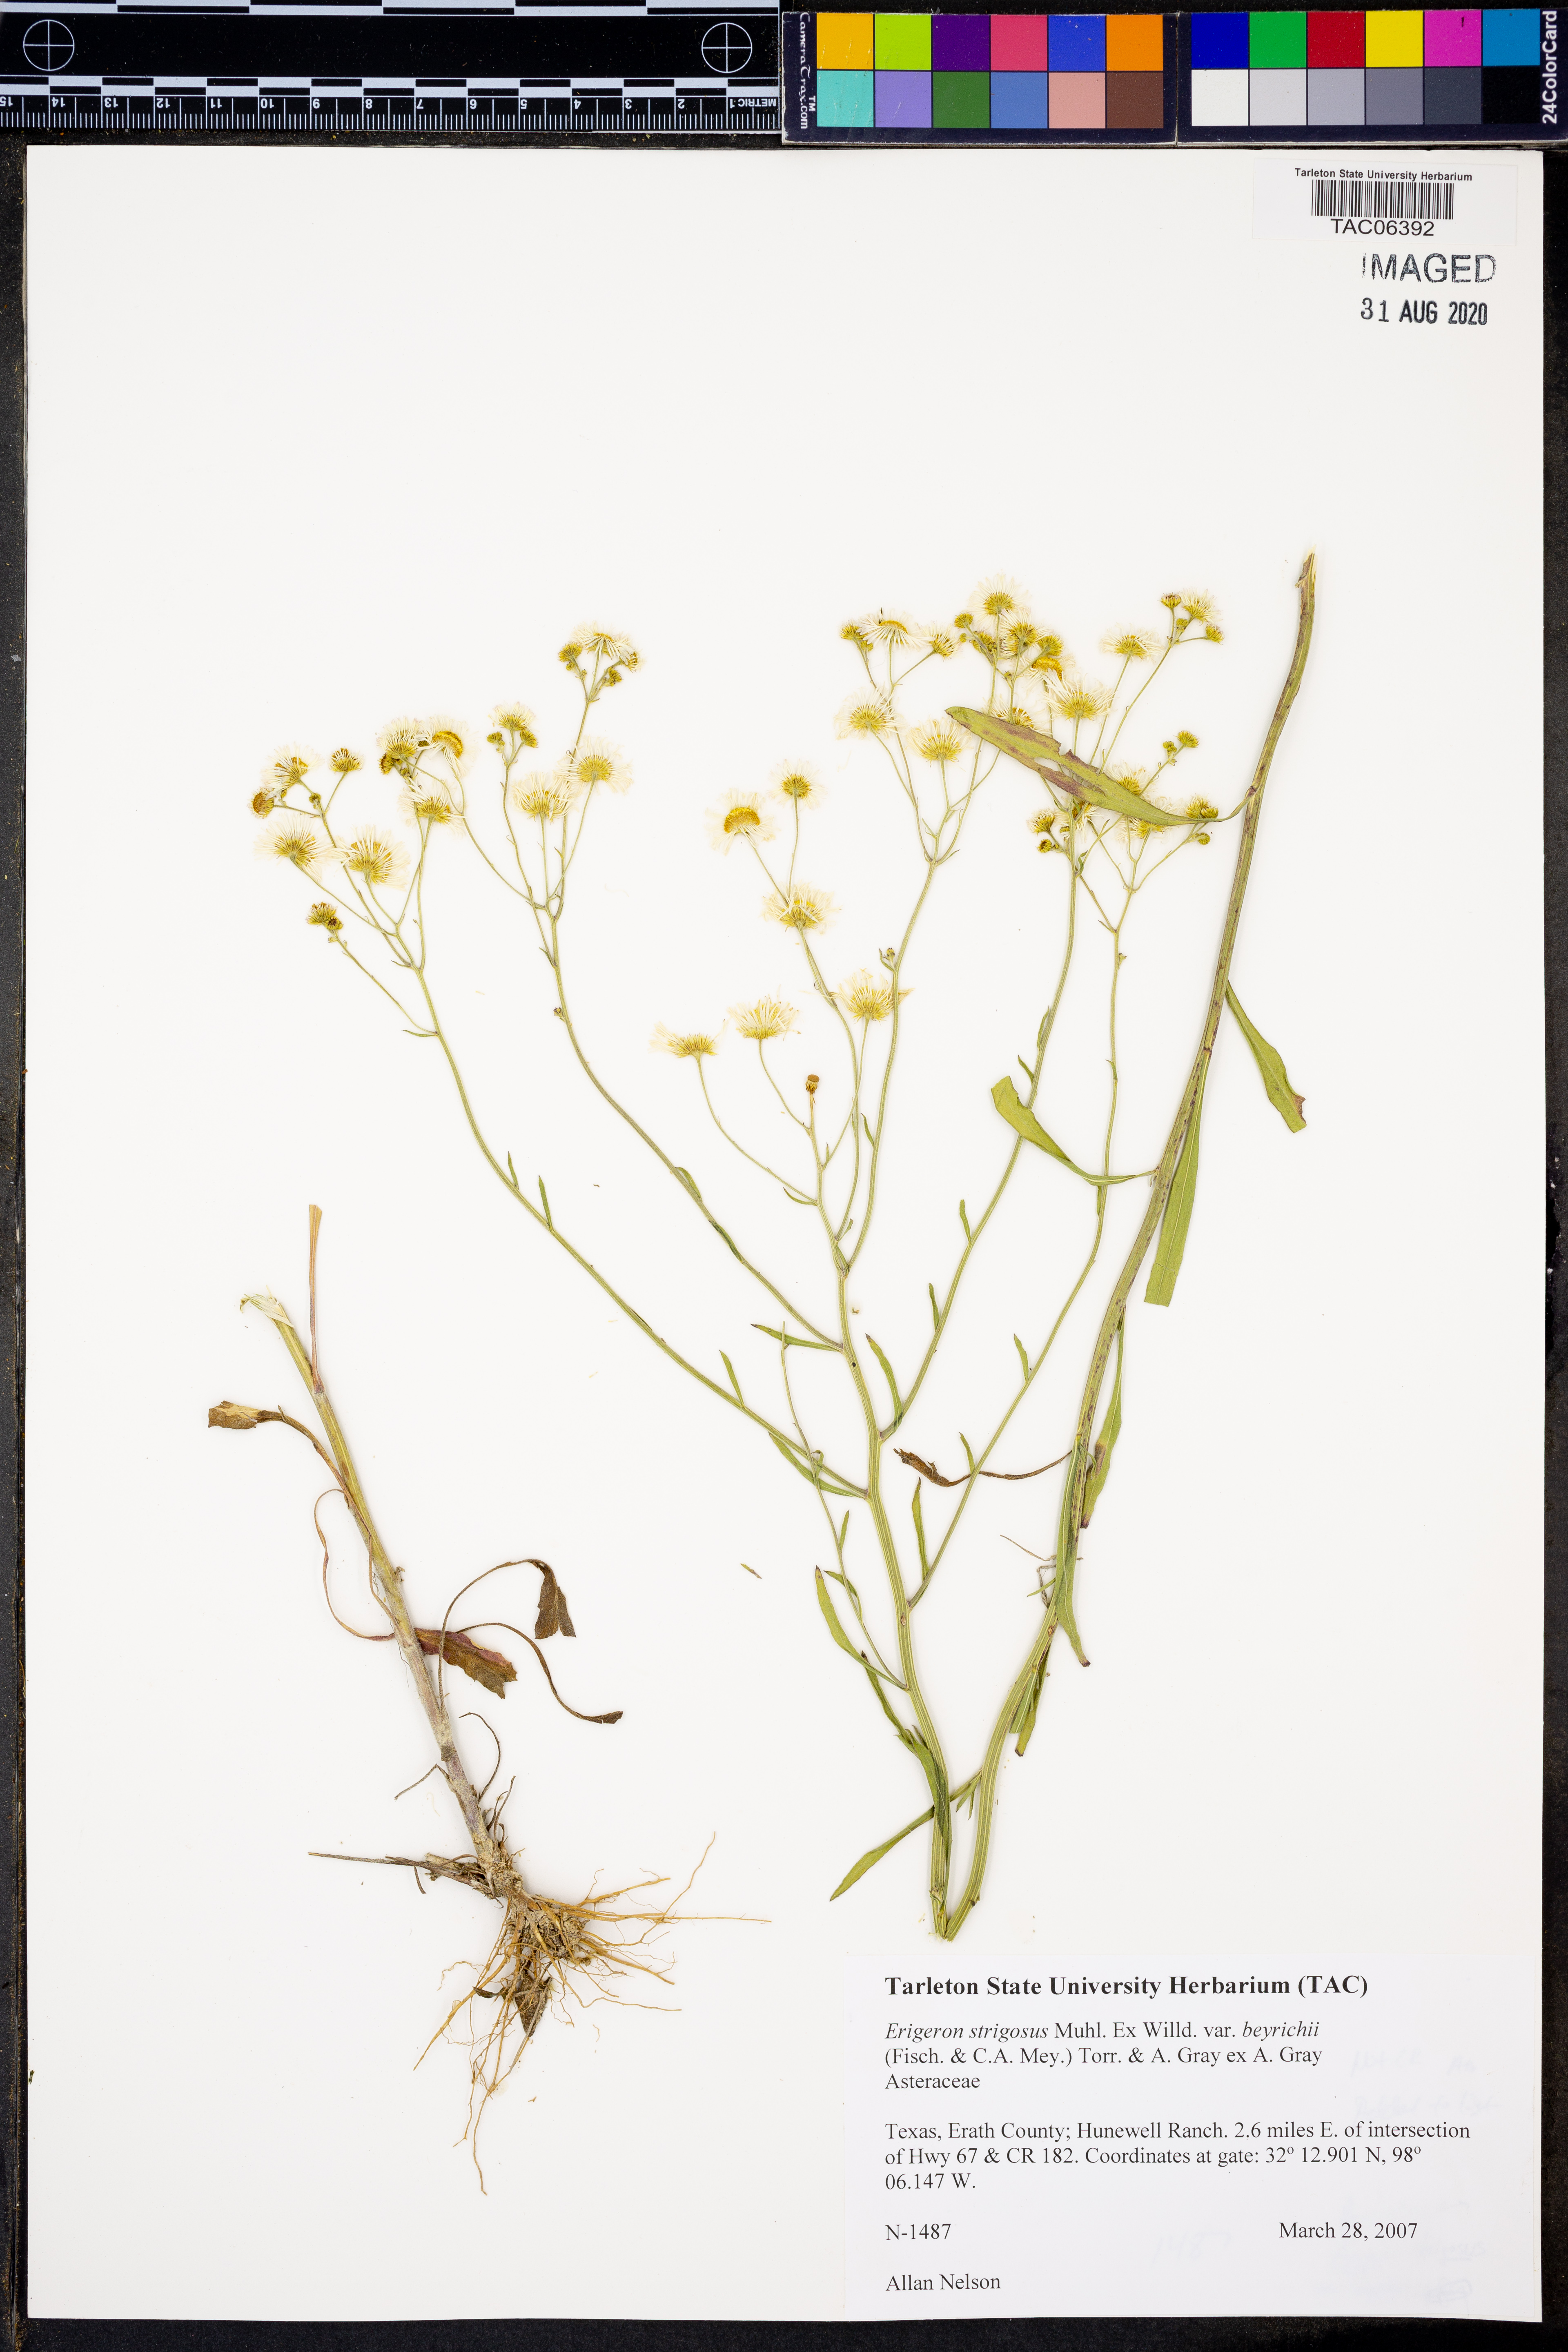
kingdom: Plantae
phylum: Tracheophyta
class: Magnoliopsida
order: Asterales
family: Asteraceae
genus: Erigeron
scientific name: Erigeron strigosus
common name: Common eastern fleabane
